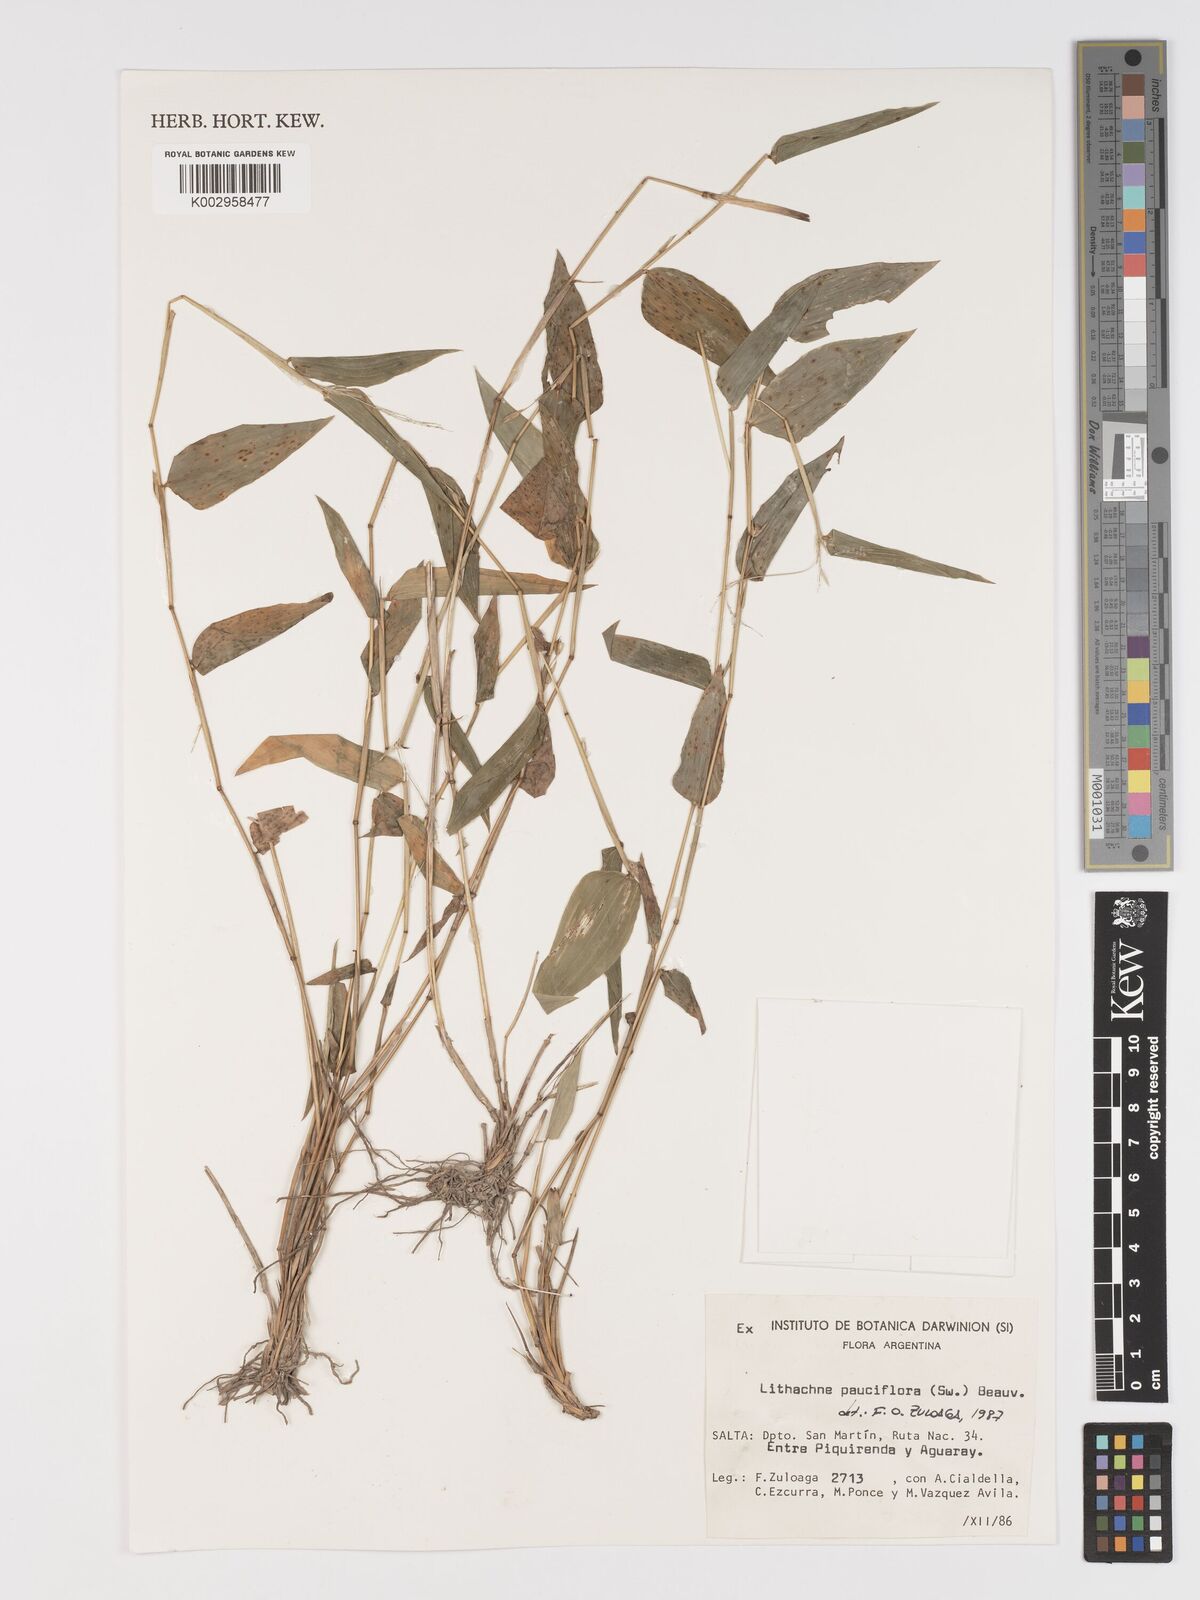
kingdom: Plantae
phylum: Tracheophyta
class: Liliopsida
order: Poales
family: Poaceae
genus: Lithachne
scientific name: Lithachne pauciflora
